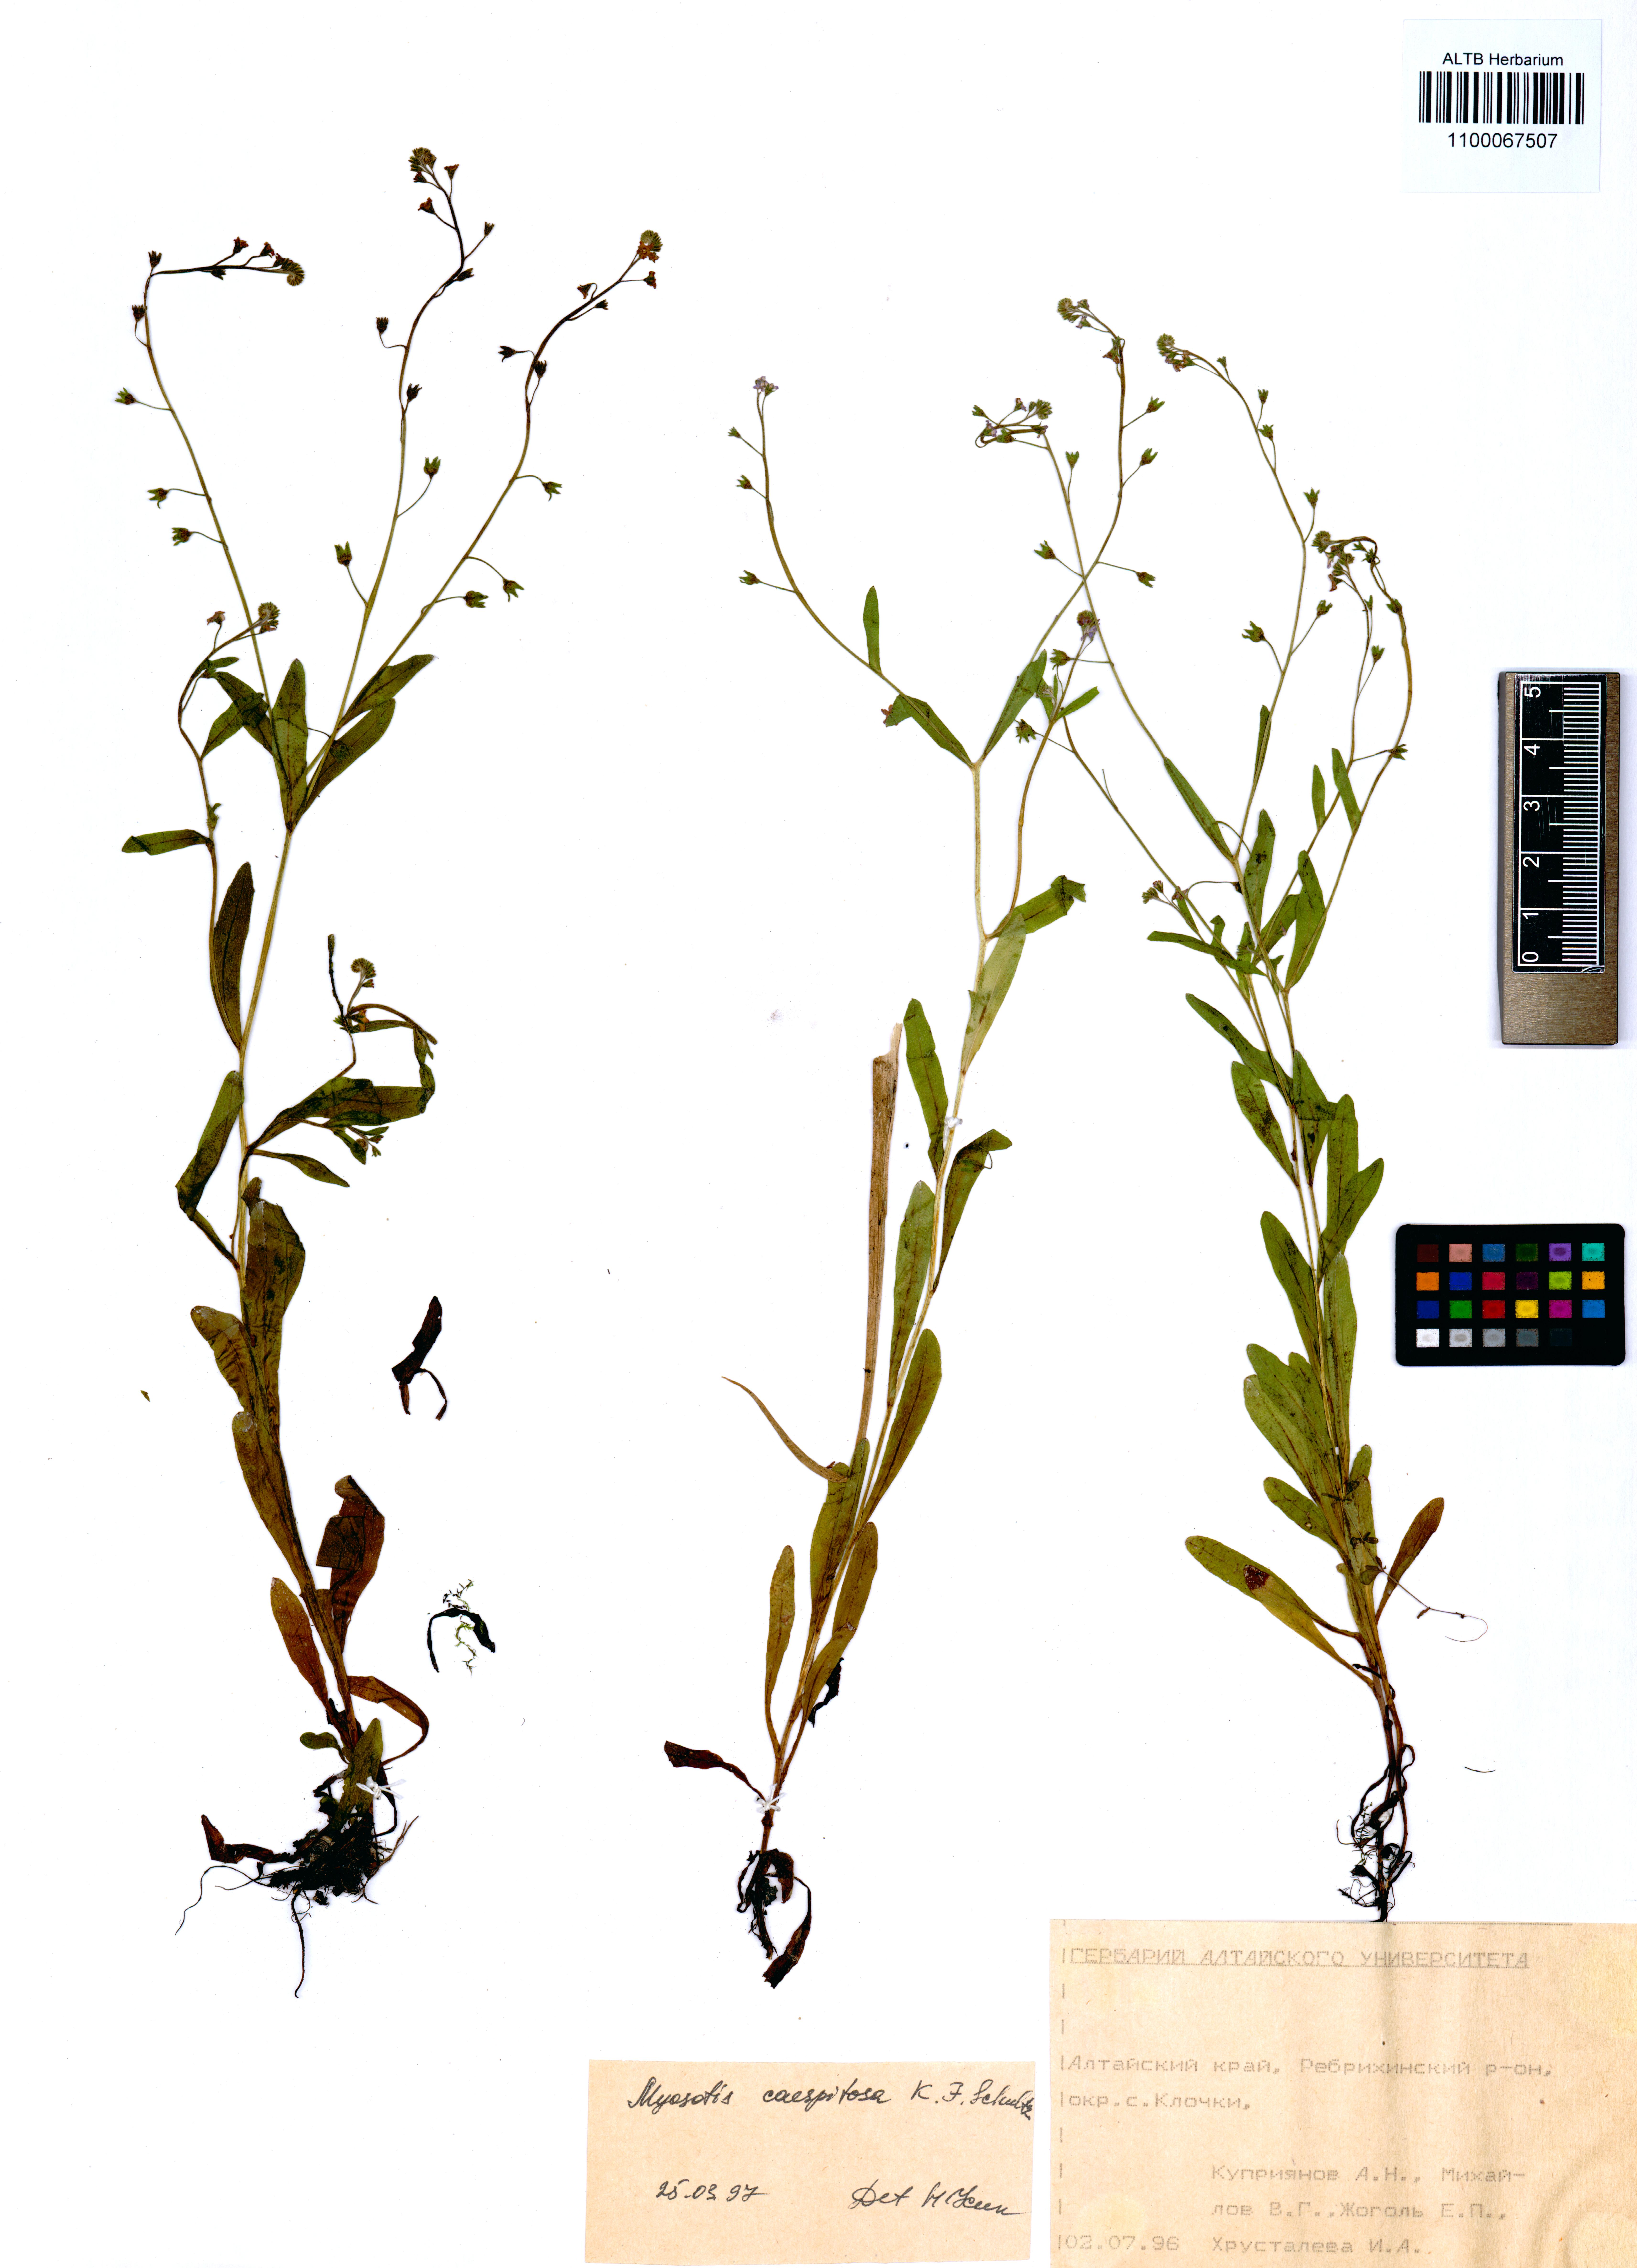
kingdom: Plantae
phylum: Tracheophyta
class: Magnoliopsida
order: Boraginales
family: Boraginaceae
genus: Myosotis
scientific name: Myosotis laxa
